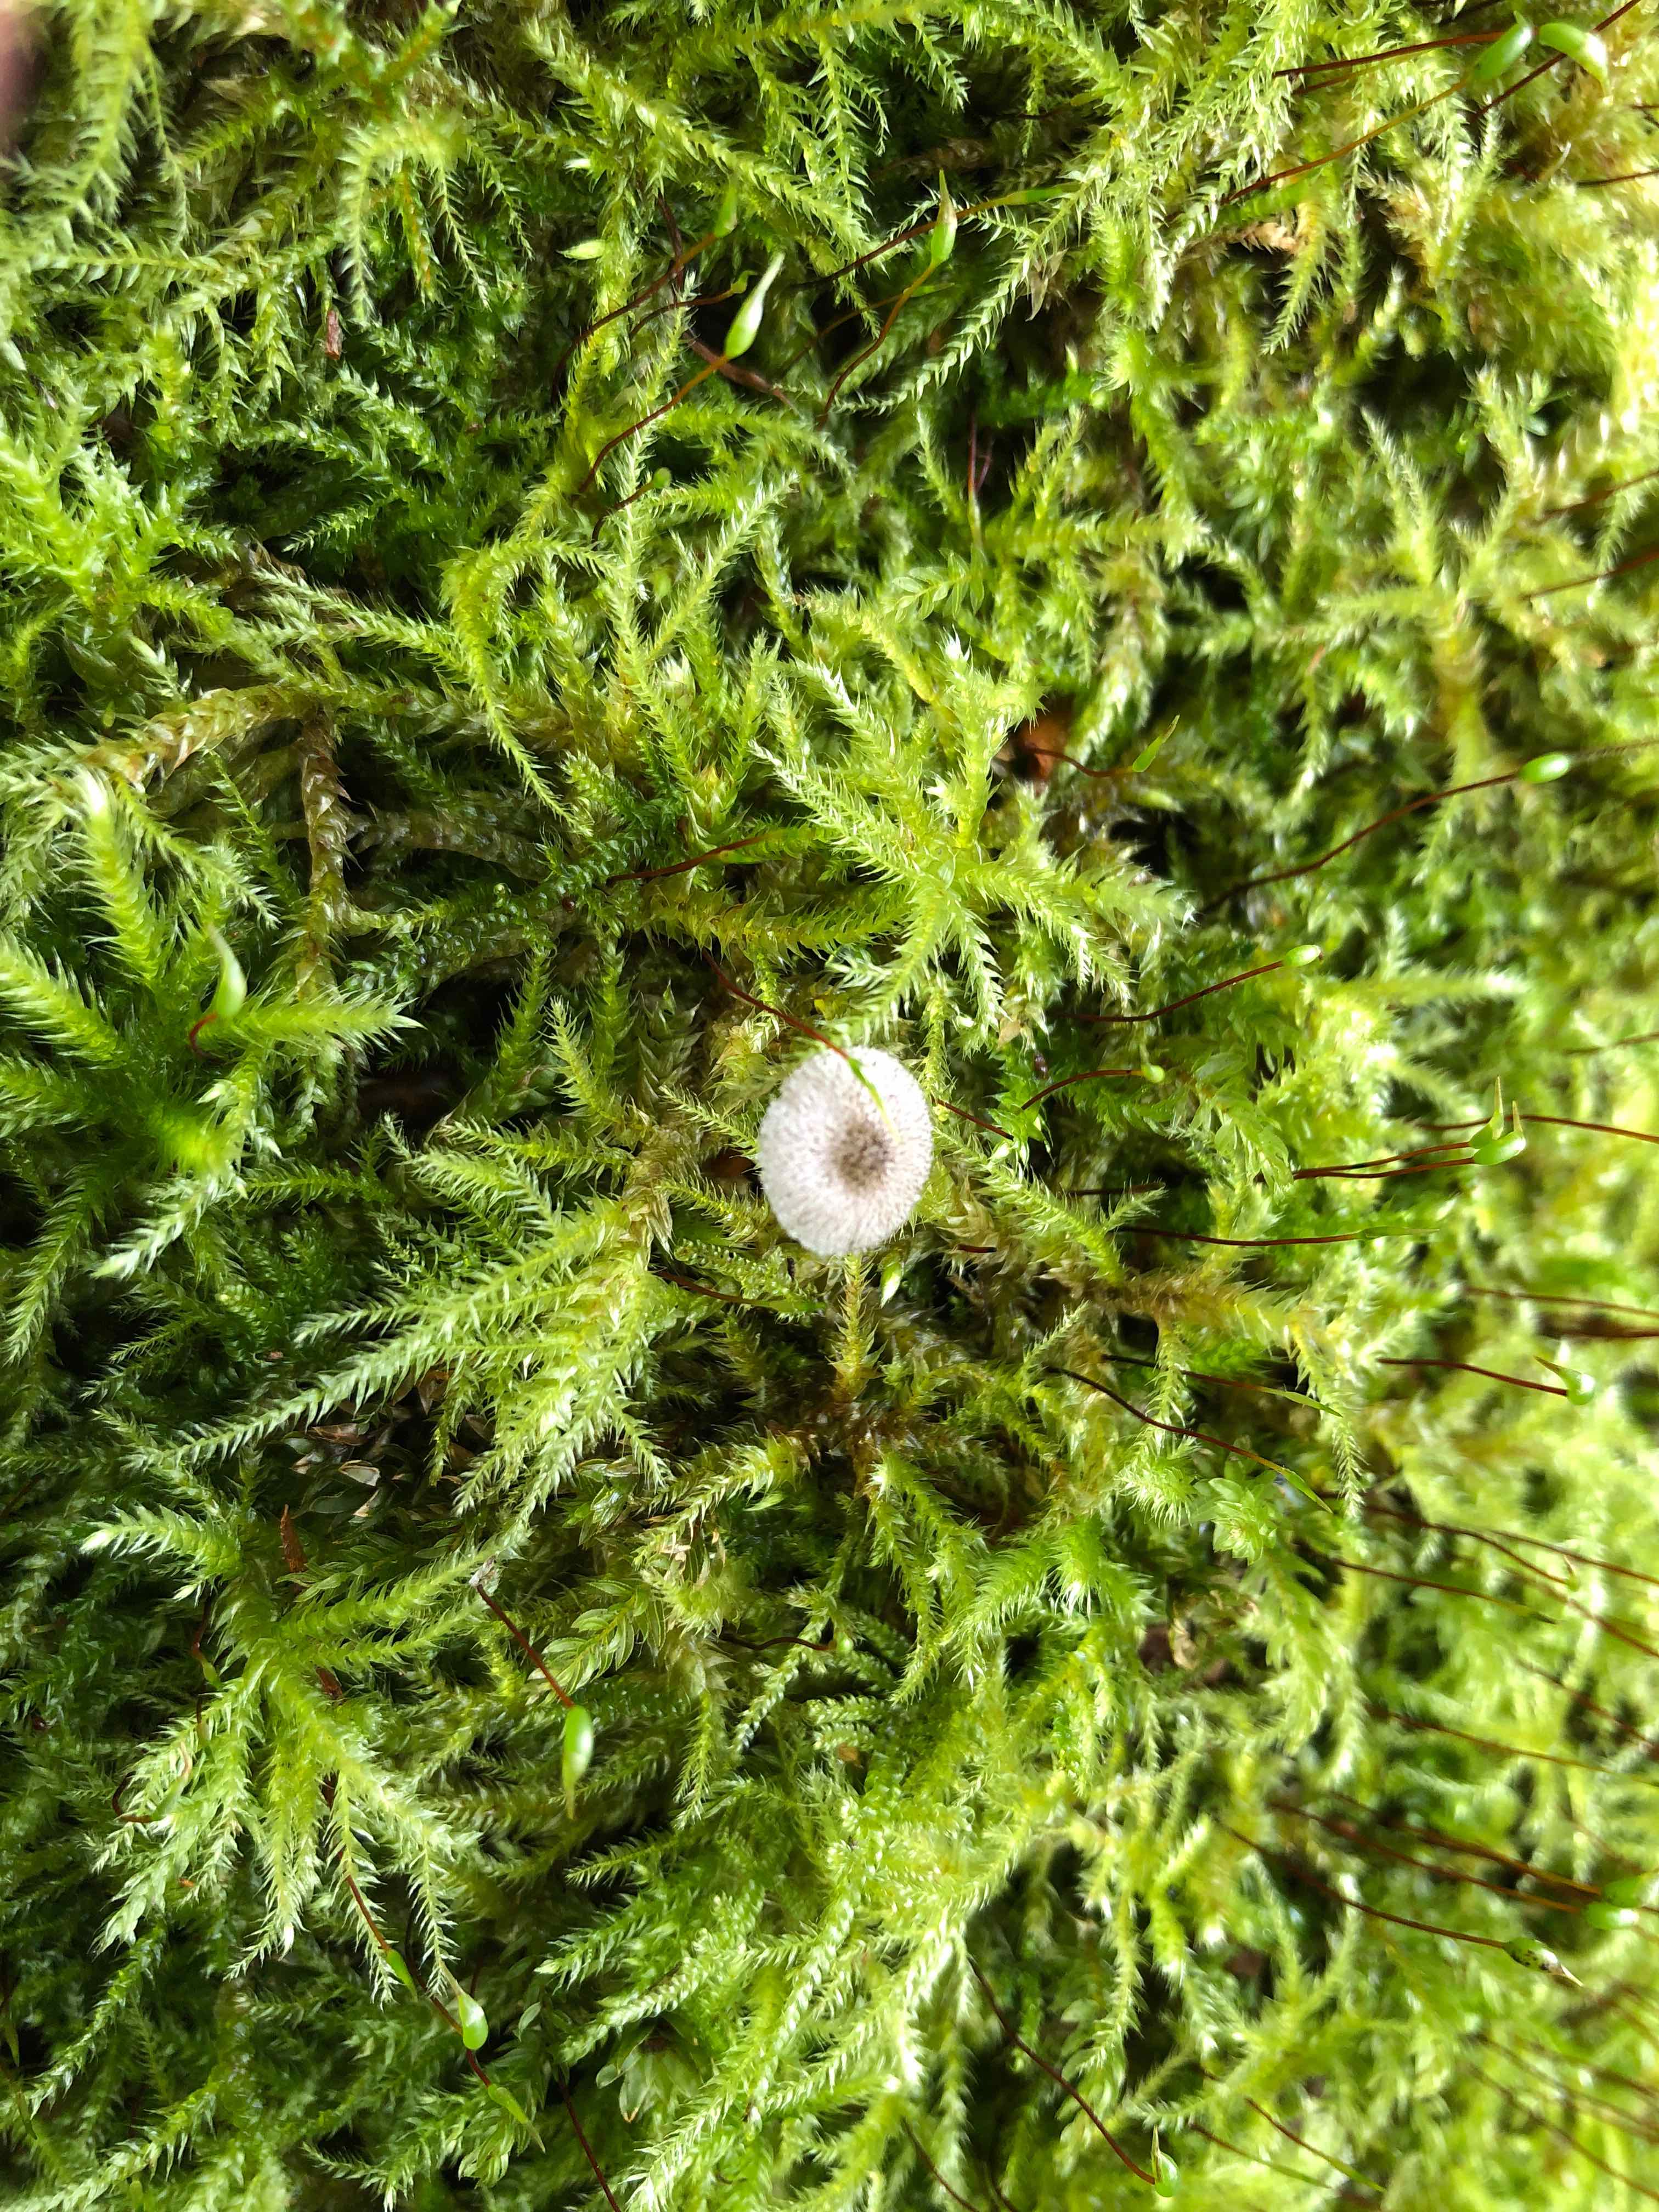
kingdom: Fungi
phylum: Basidiomycota
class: Agaricomycetes
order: Agaricales
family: Pluteaceae
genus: Pluteus
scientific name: Pluteus
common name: stivhåret skærmhat
